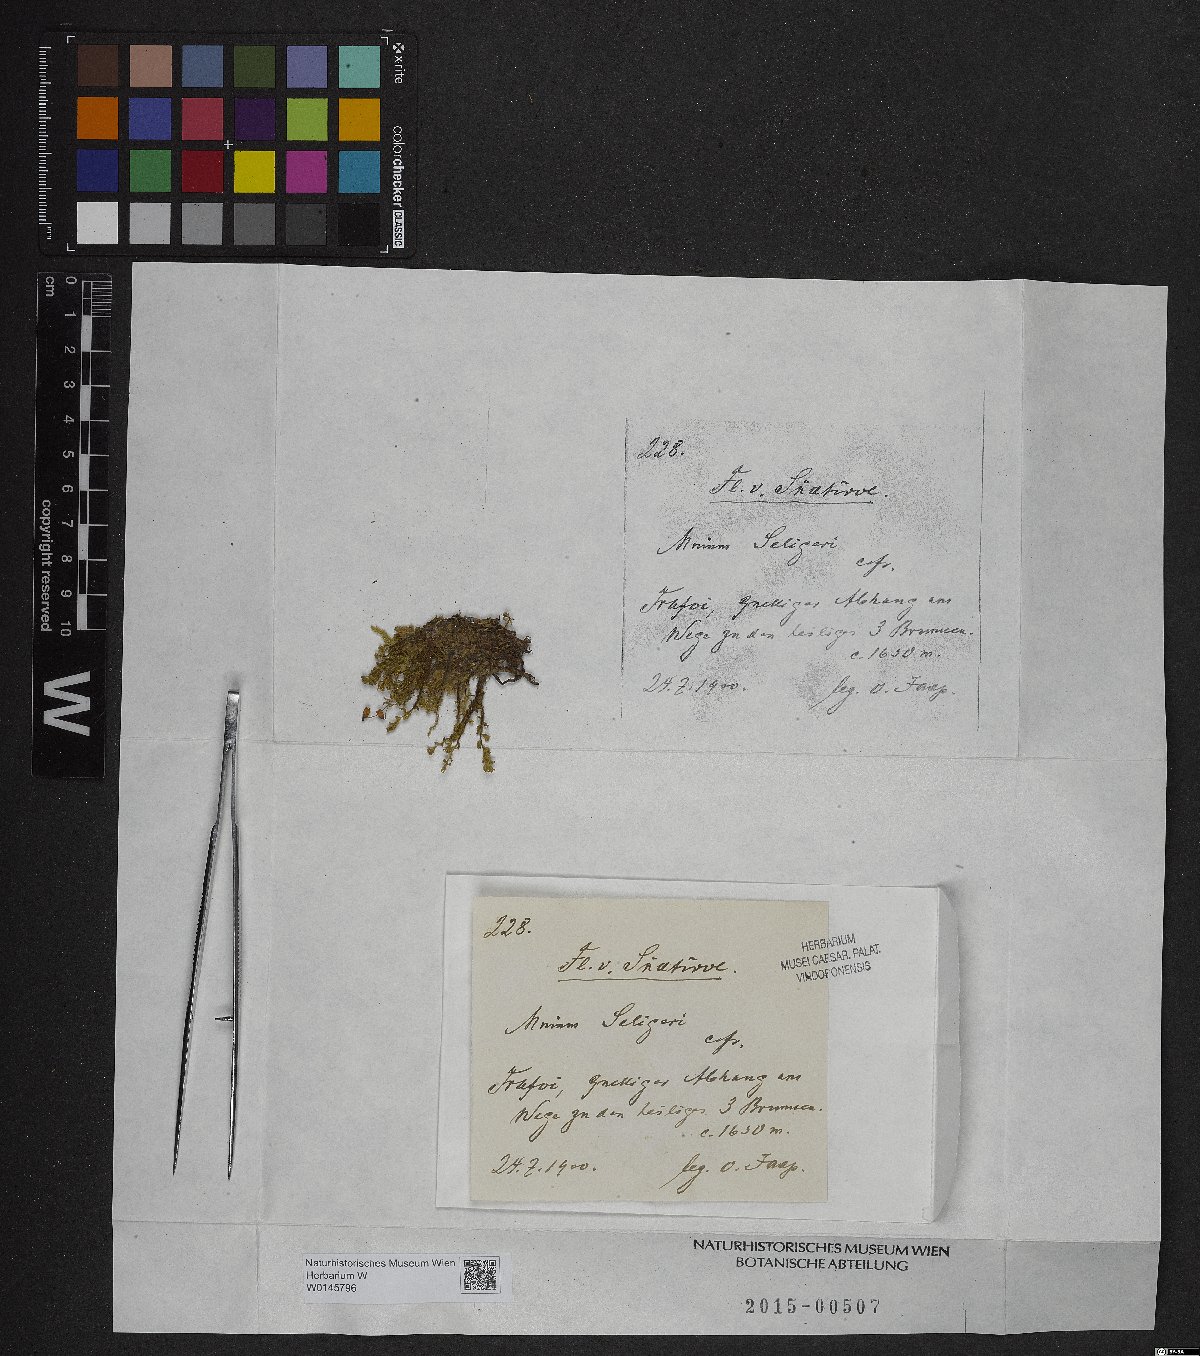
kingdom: Plantae
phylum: Bryophyta
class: Bryopsida
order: Bryales
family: Mniaceae
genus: Plagiomnium
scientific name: Plagiomnium elatum
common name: Tall thyme-moss
